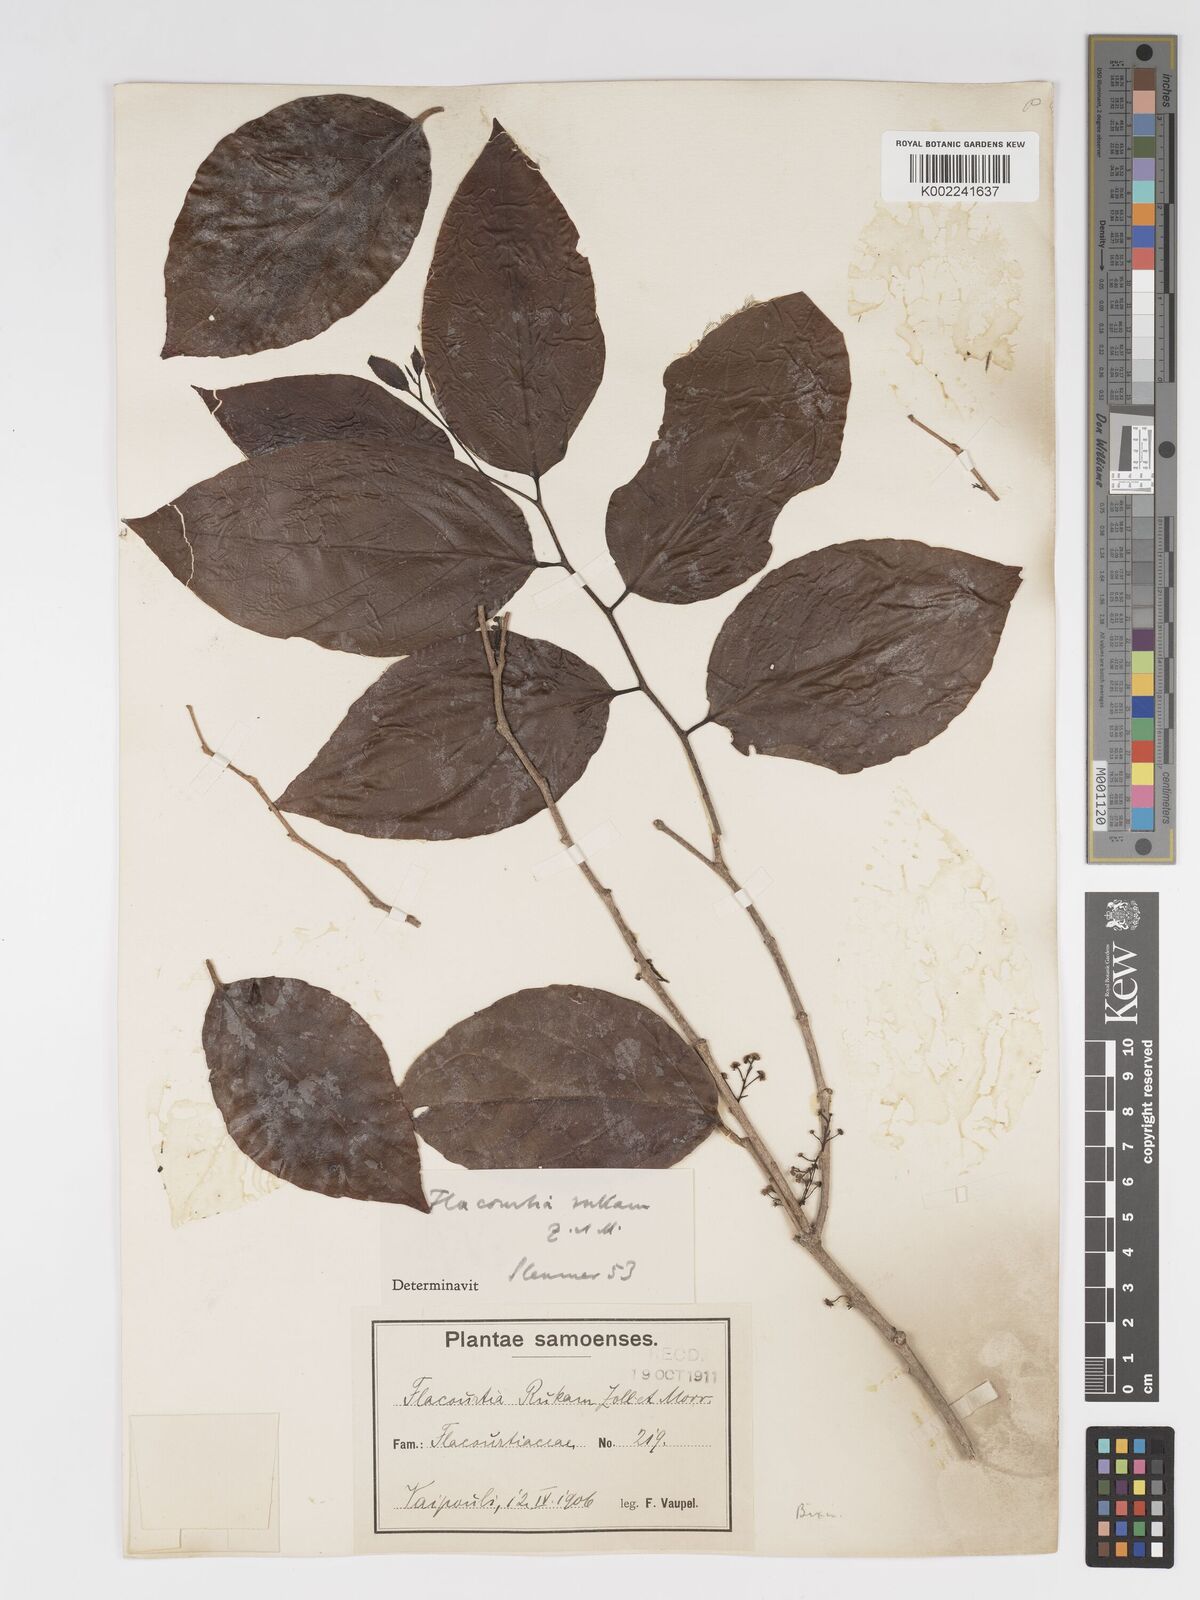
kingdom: Plantae
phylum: Tracheophyta
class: Magnoliopsida
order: Malpighiales
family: Salicaceae
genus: Flacourtia
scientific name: Flacourtia rukam
